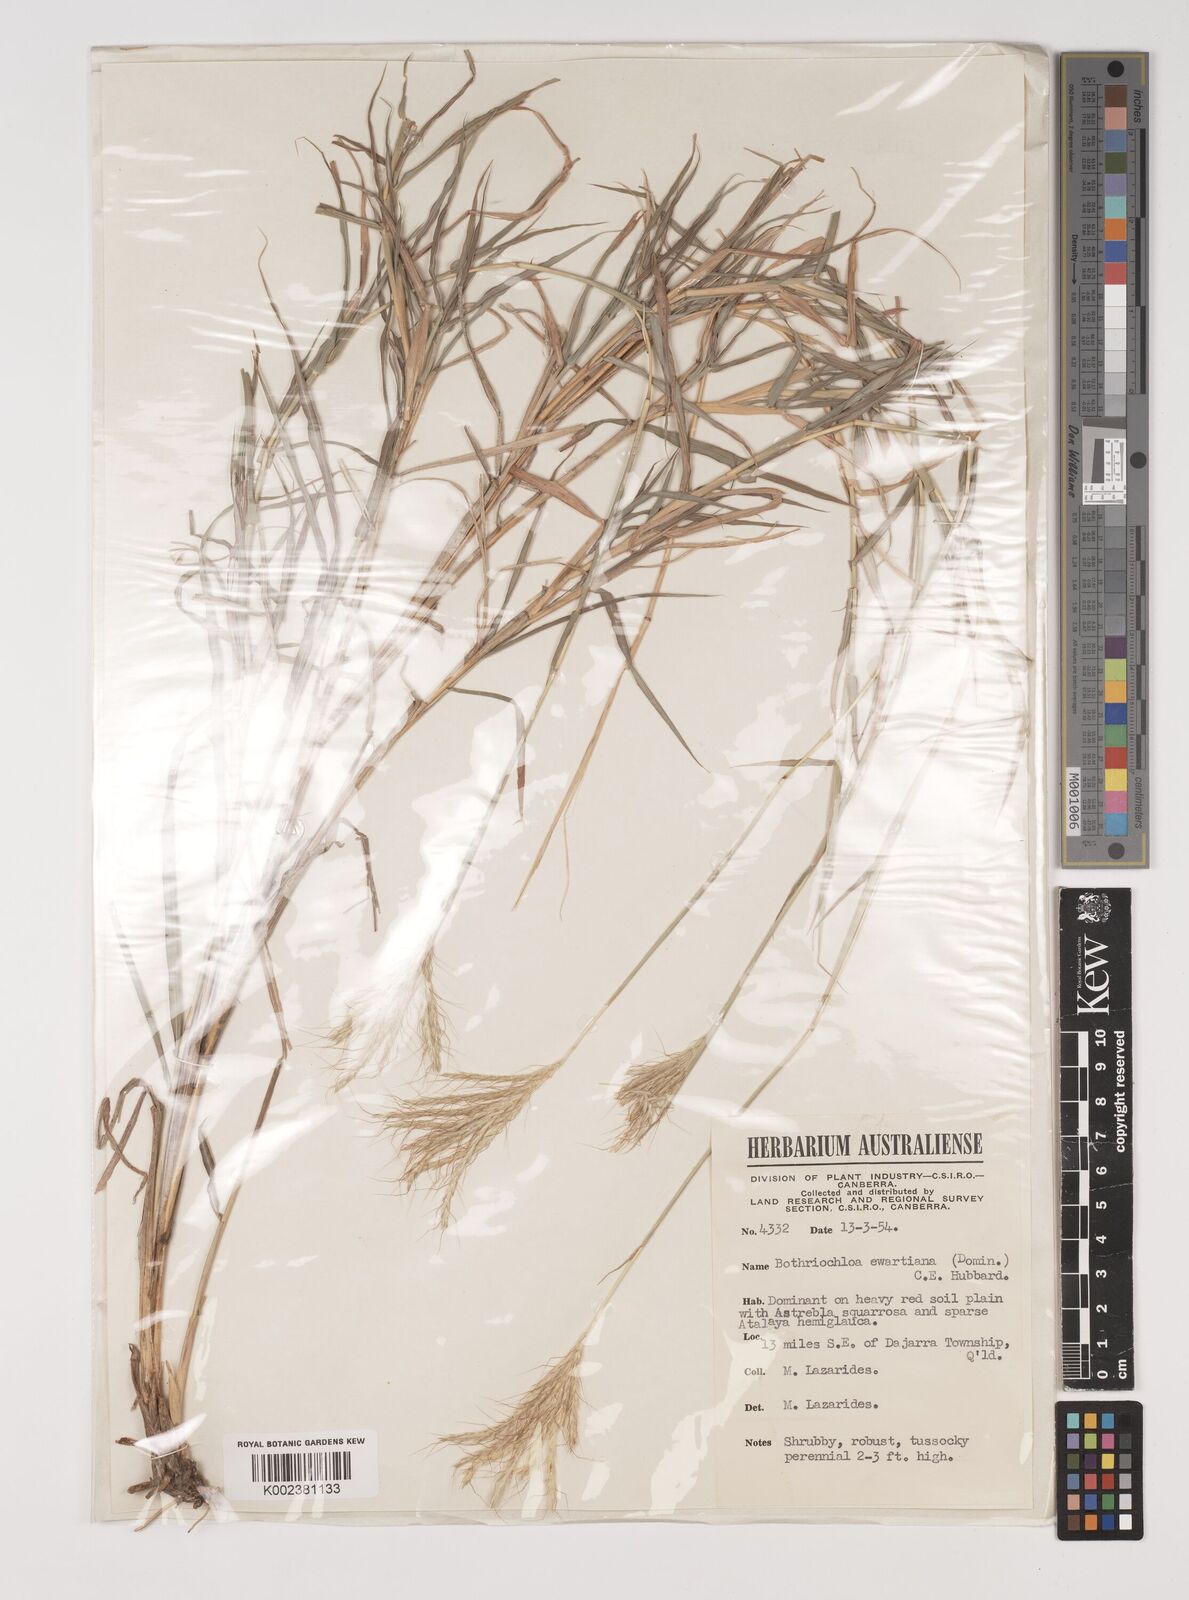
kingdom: Plantae
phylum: Tracheophyta
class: Liliopsida
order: Poales
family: Poaceae
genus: Bothriochloa
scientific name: Bothriochloa ewartiana
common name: Desert-bluegrass
